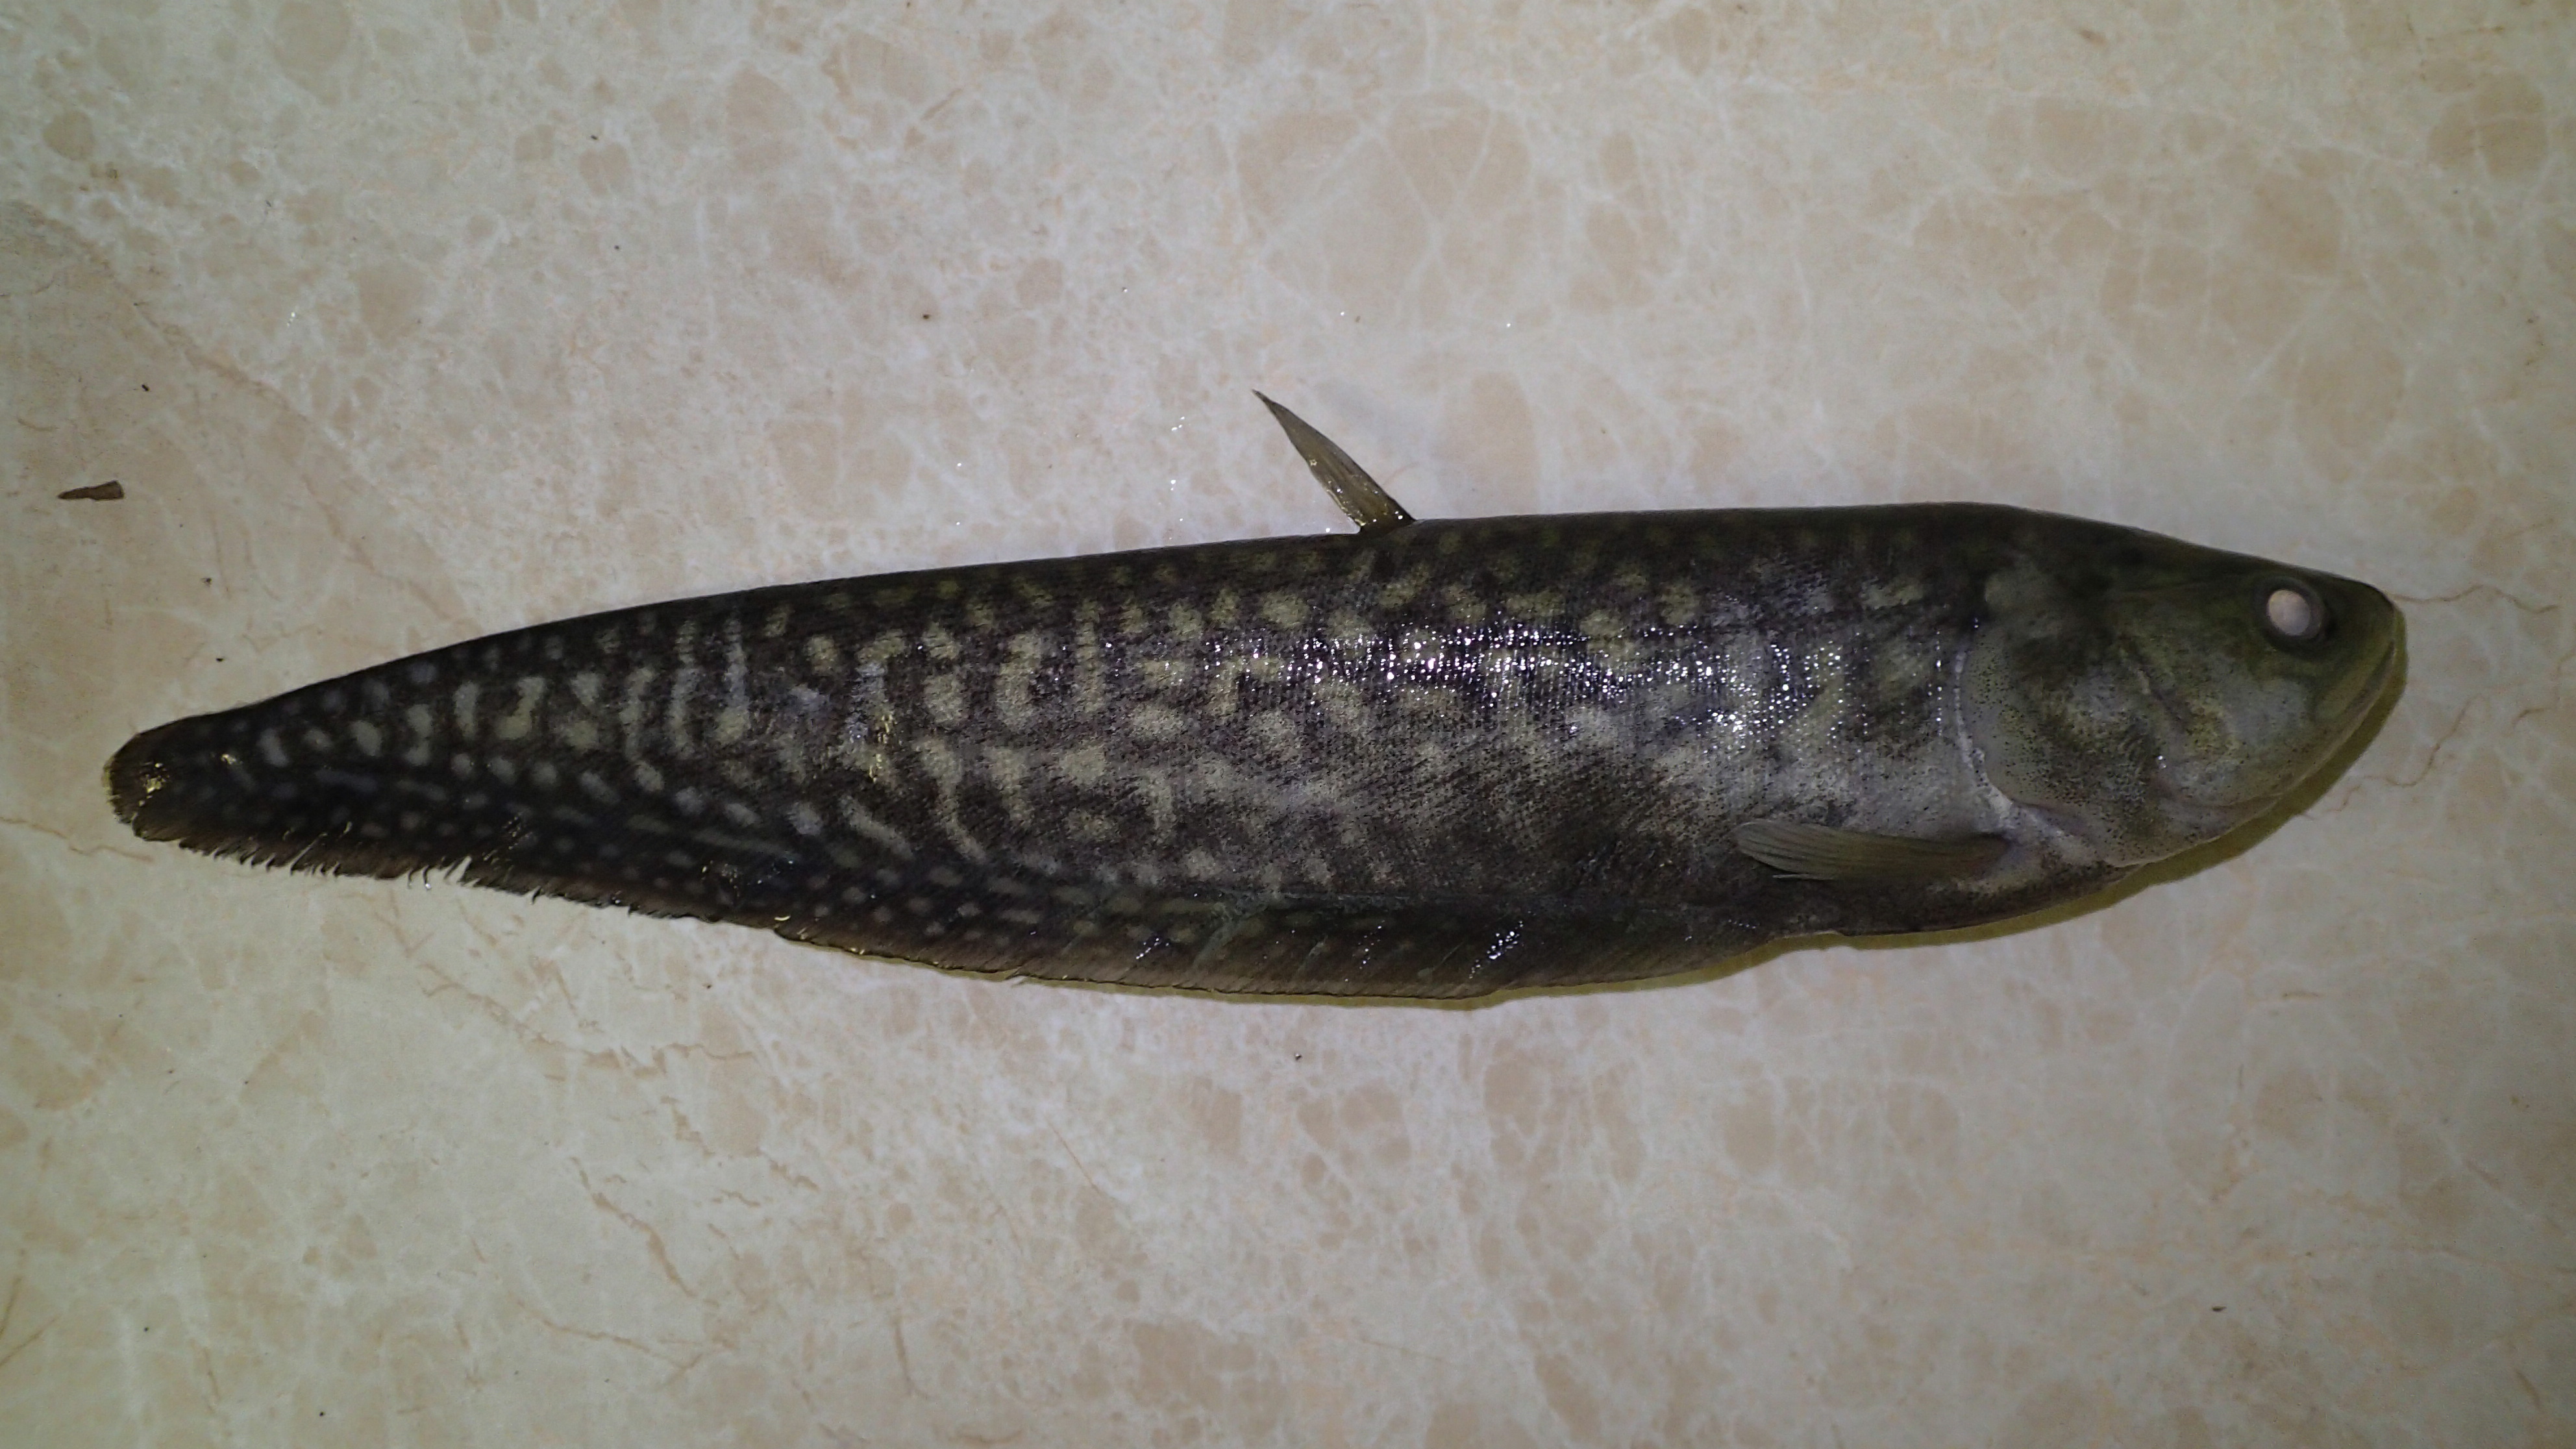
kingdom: Animalia
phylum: Chordata
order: Osteoglossiformes
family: Notopteridae
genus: Papyrocranus
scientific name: Papyrocranus afer
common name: Reticulate knifefish
